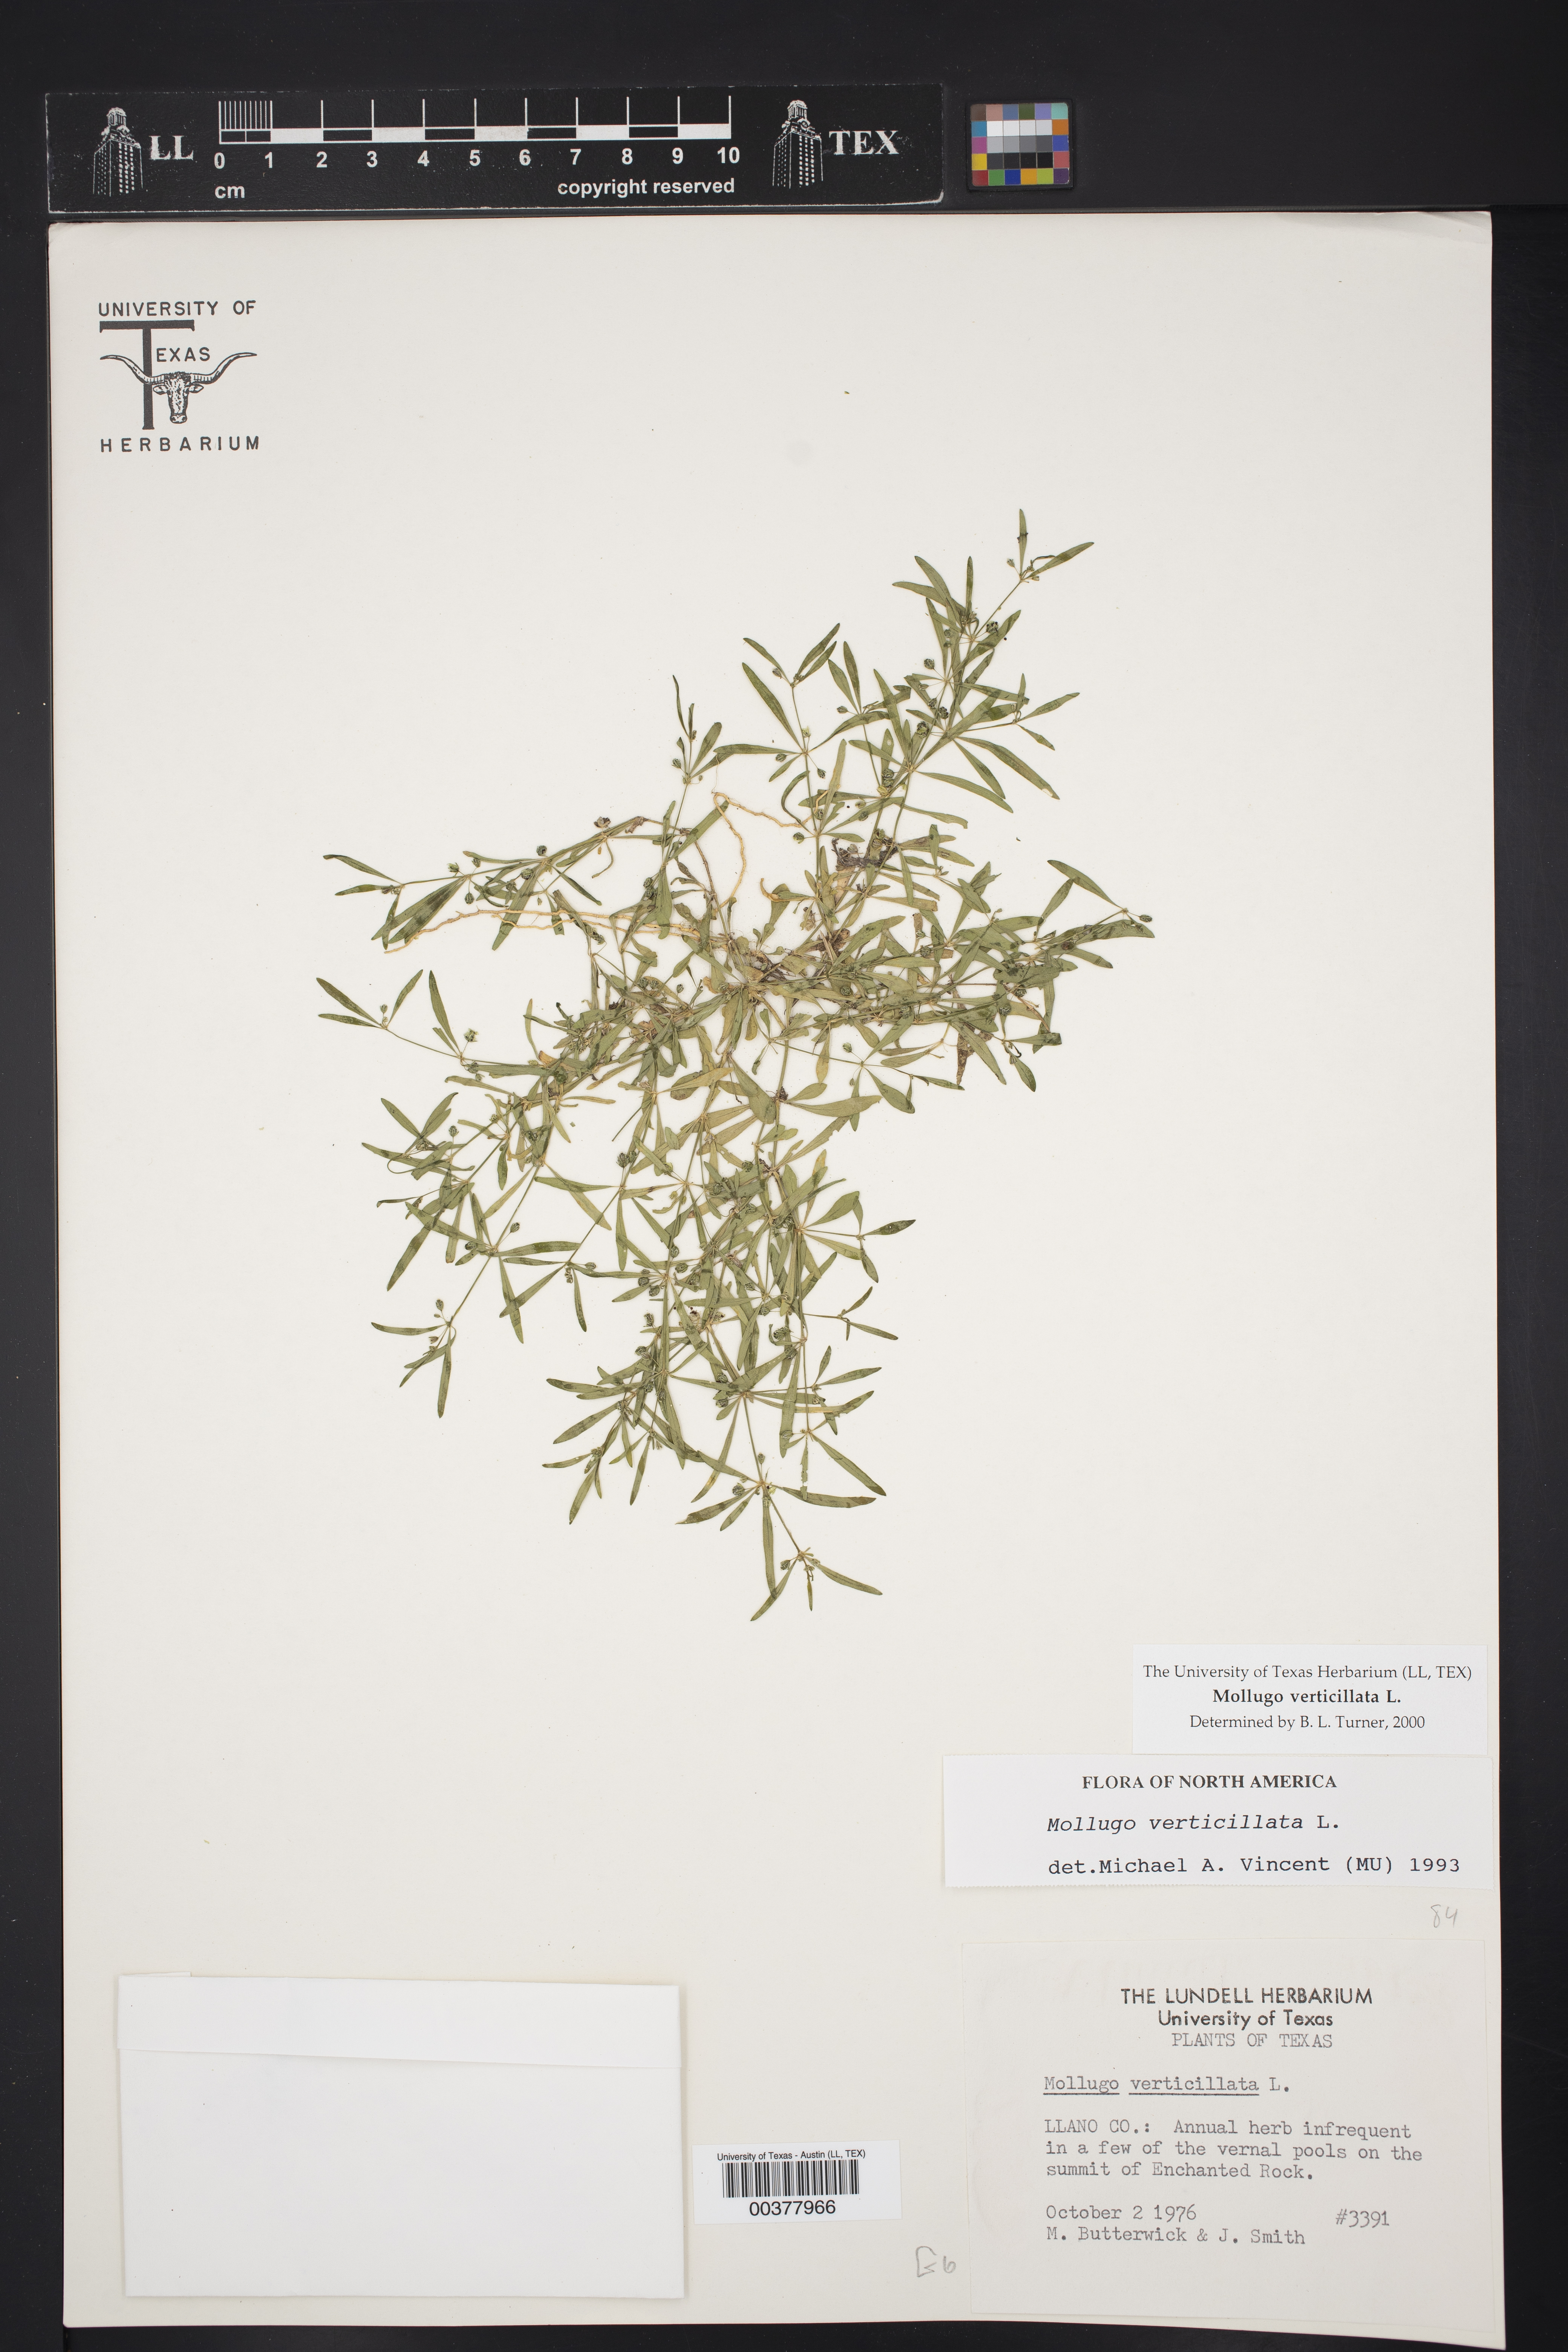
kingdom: Plantae
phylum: Tracheophyta
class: Magnoliopsida
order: Caryophyllales
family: Molluginaceae
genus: Mollugo
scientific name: Mollugo verticillata
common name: Green carpetweed
